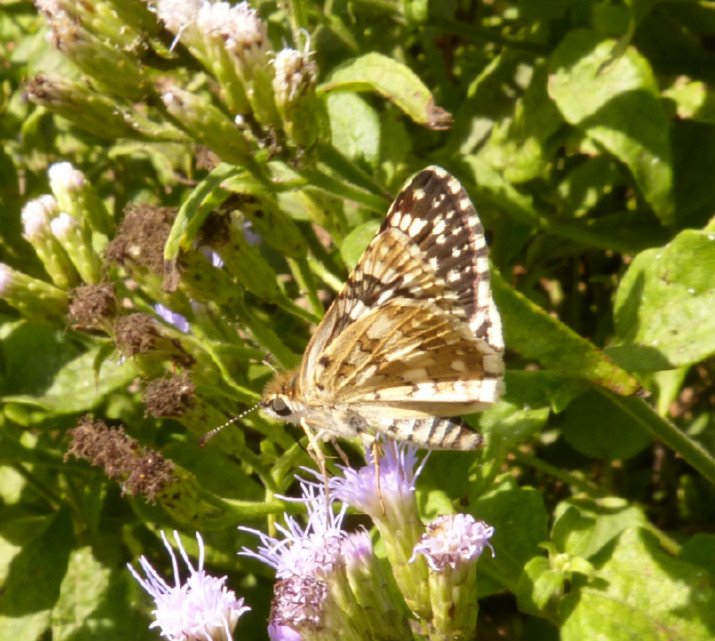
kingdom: Animalia
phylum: Arthropoda
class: Insecta
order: Lepidoptera
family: Hesperiidae
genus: Pyrgus
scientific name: Pyrgus communis
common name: White Checkered-Skipper
